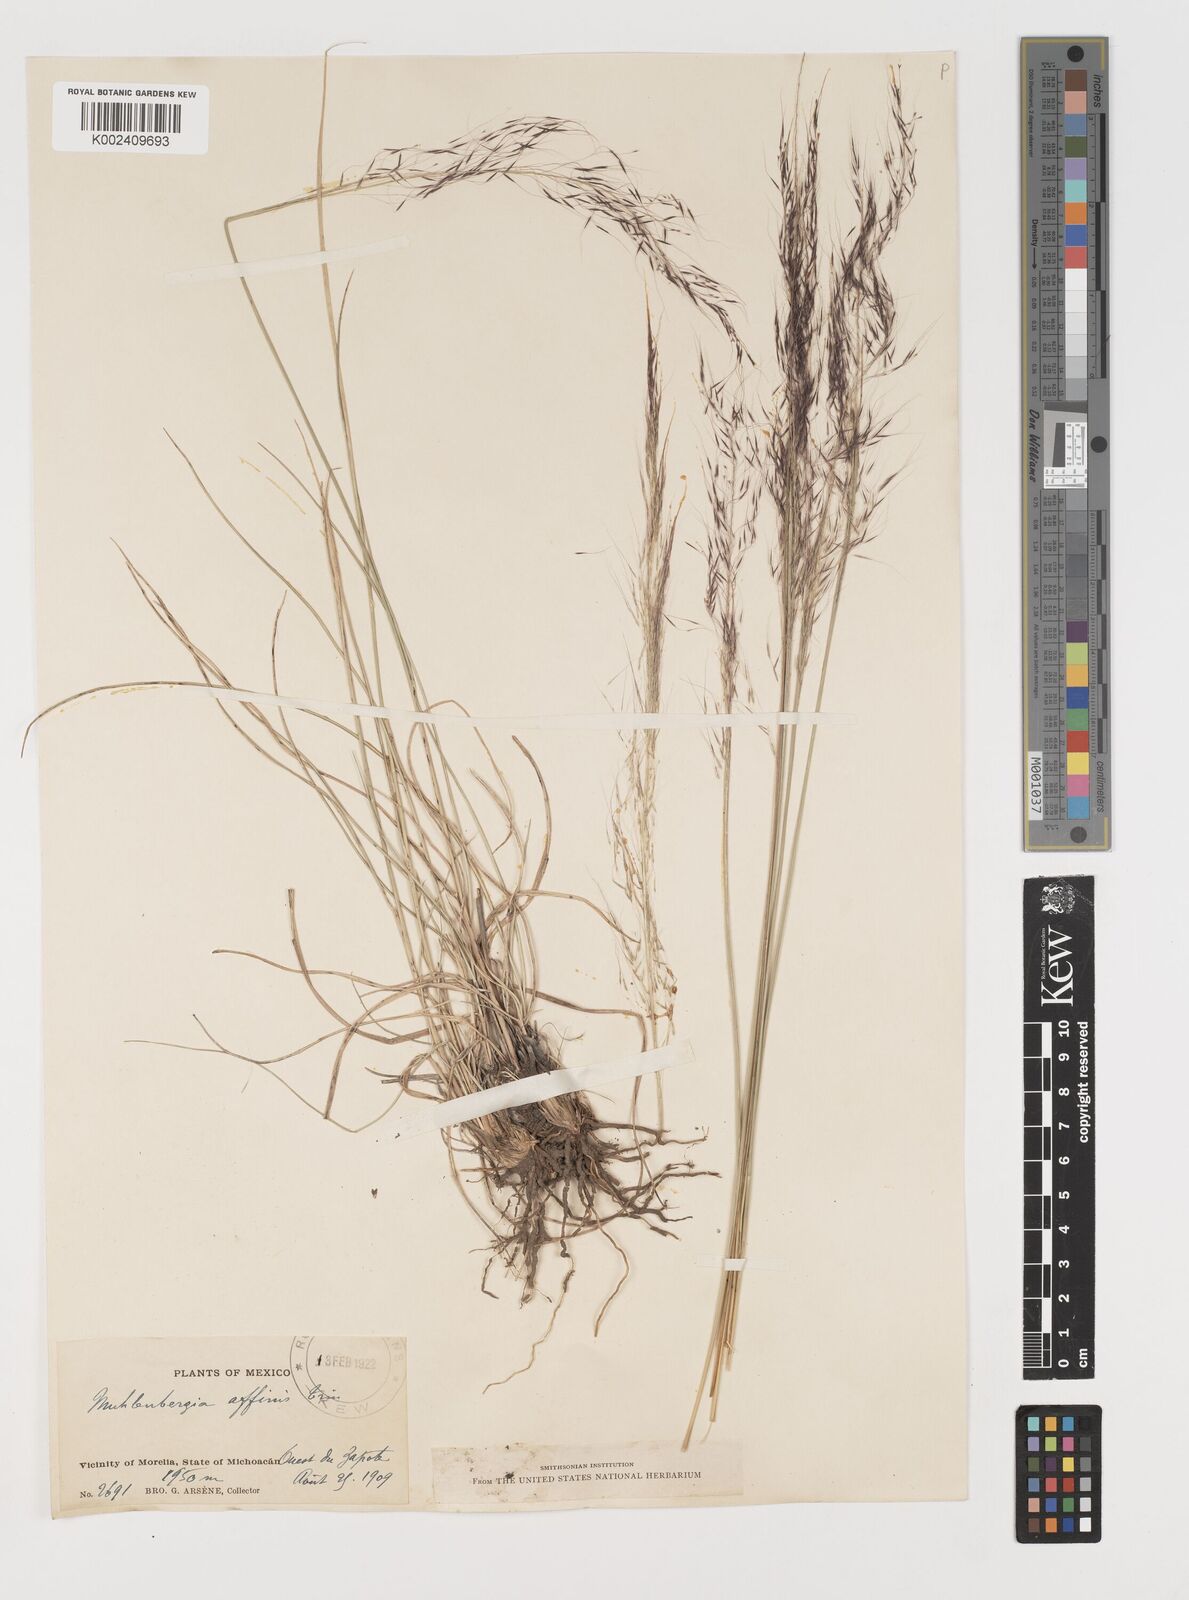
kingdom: Plantae
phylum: Tracheophyta
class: Liliopsida
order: Poales
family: Poaceae
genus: Muhlenbergia
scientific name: Muhlenbergia rigida
